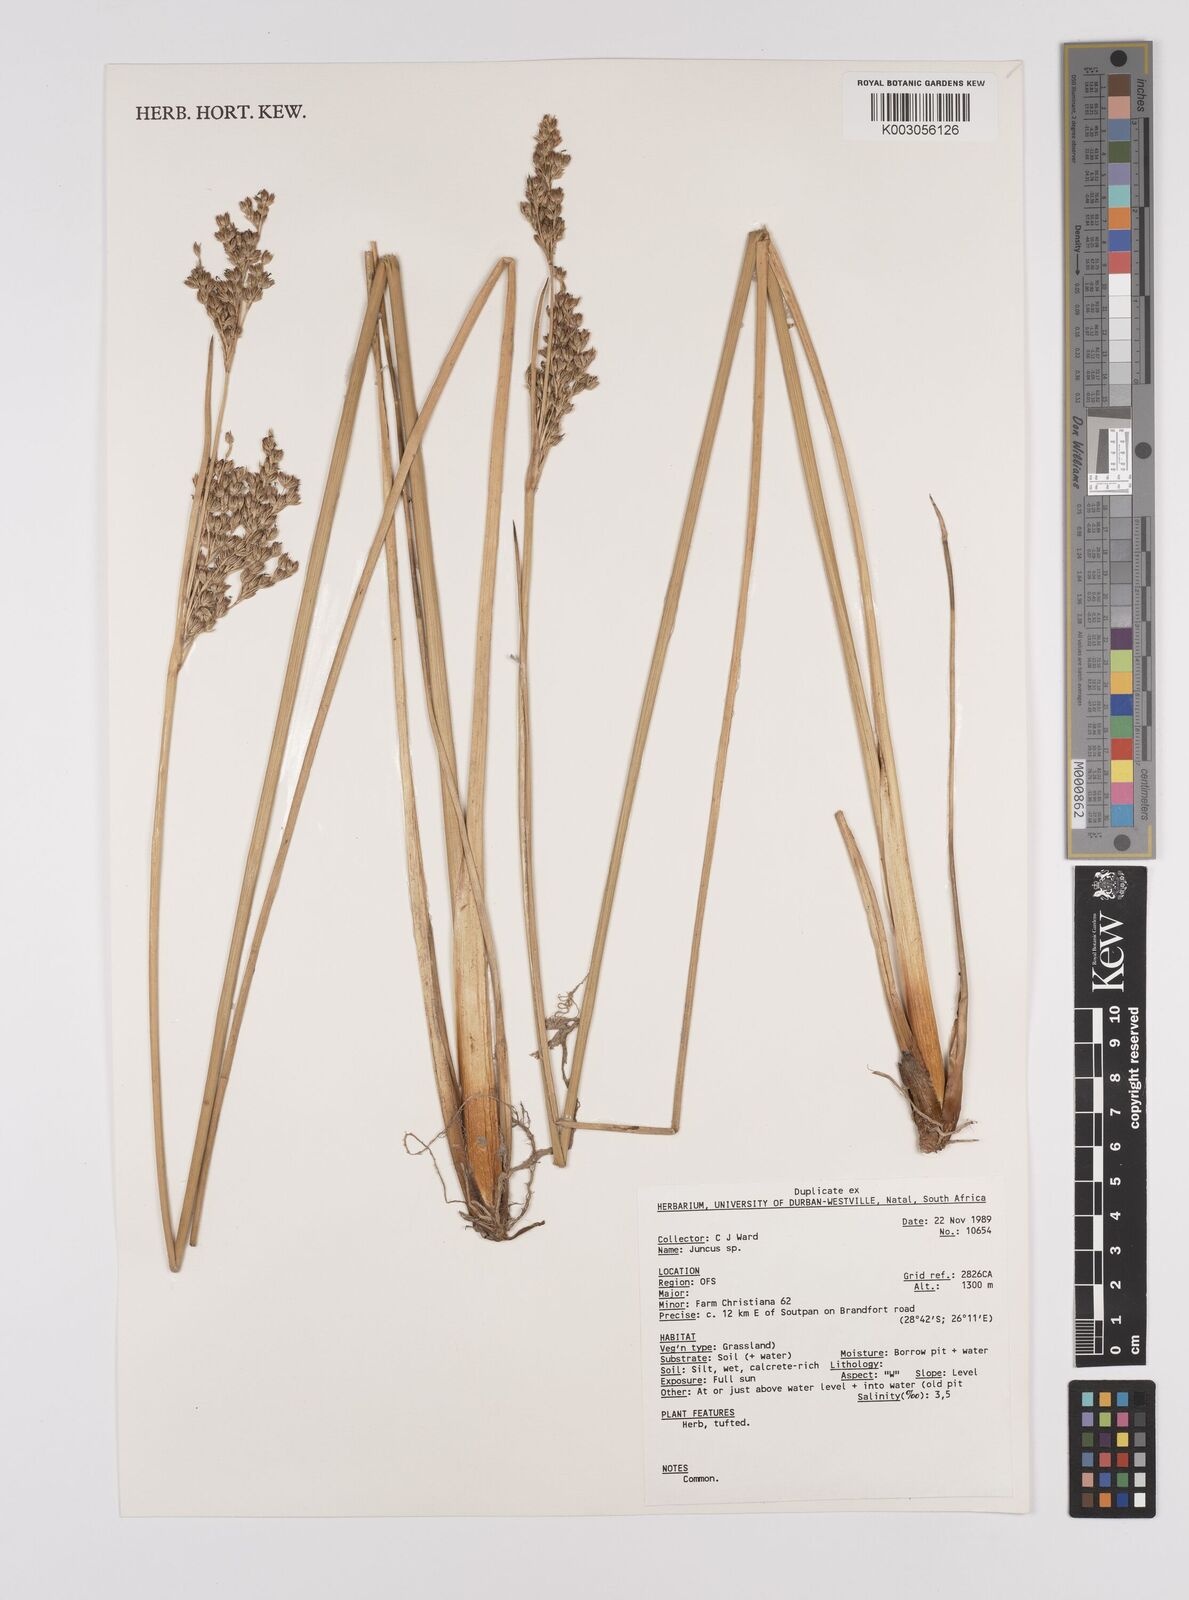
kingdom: Plantae
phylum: Tracheophyta
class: Liliopsida
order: Poales
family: Juncaceae
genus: Juncus
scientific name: Juncus
